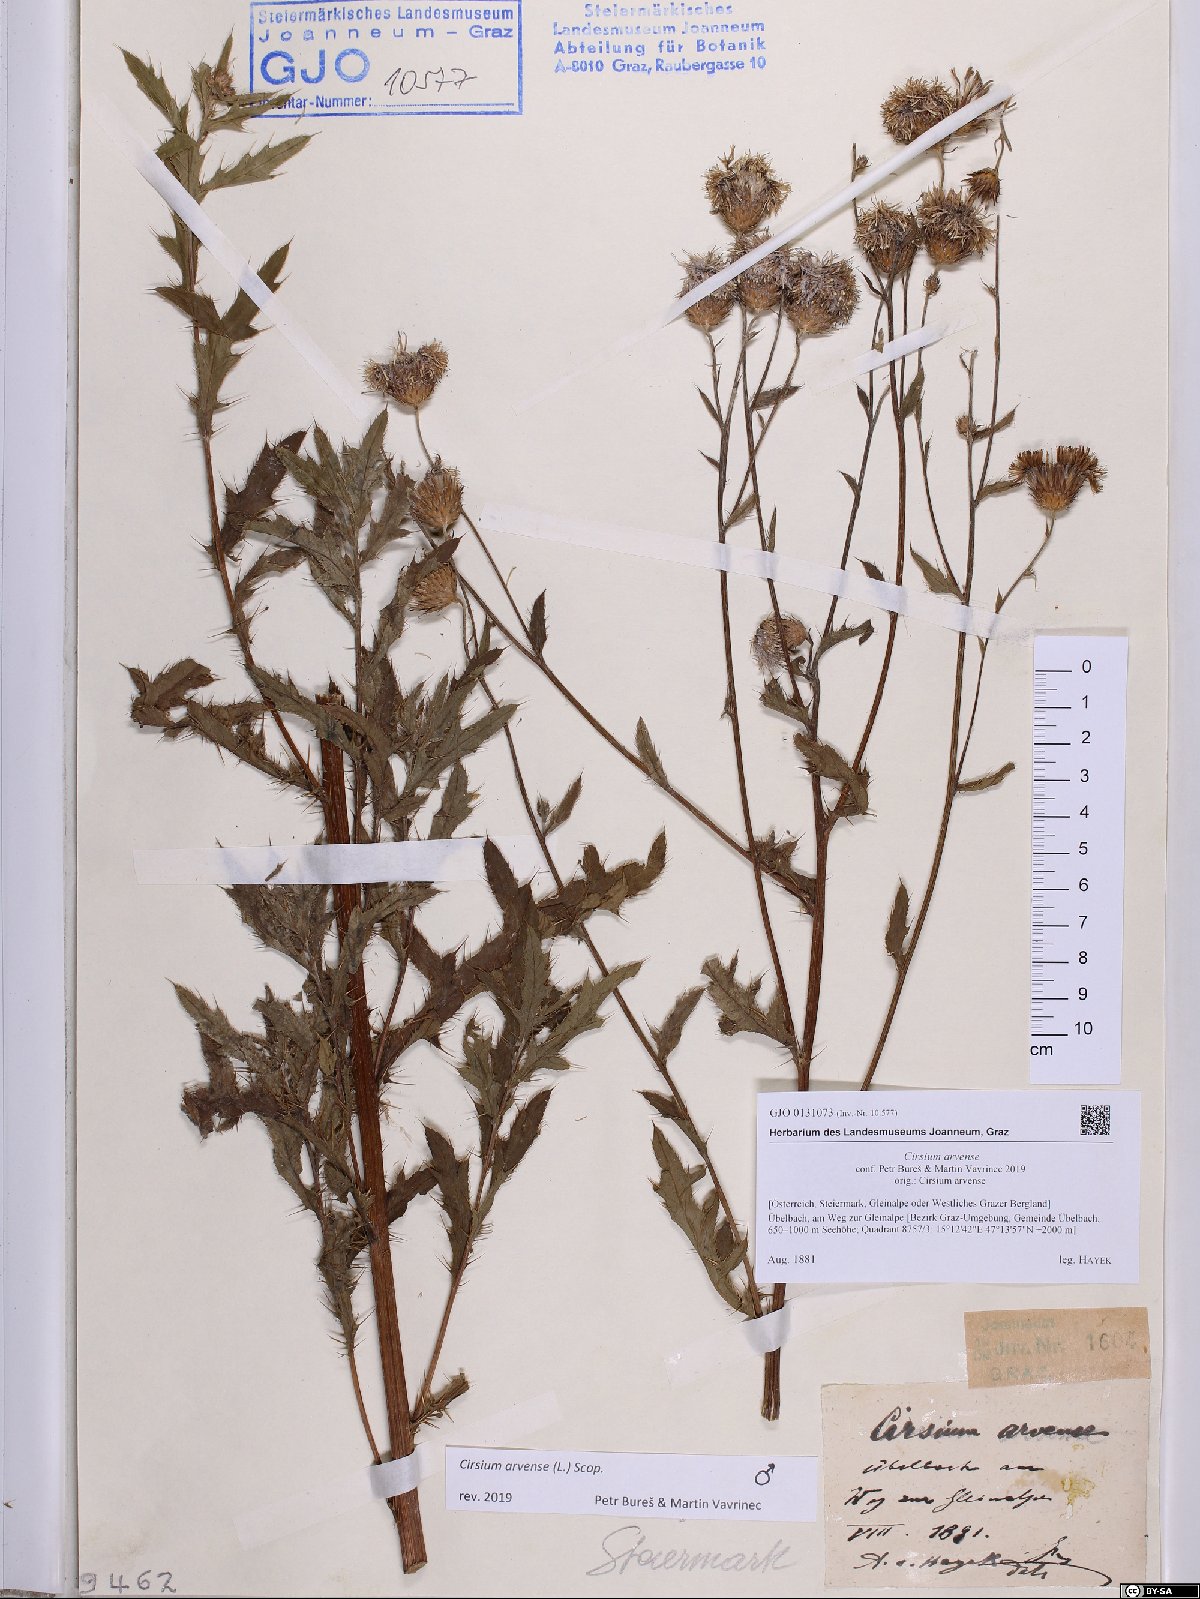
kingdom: Plantae
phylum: Tracheophyta
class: Magnoliopsida
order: Asterales
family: Asteraceae
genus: Cirsium
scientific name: Cirsium arvense
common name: Creeping thistle
